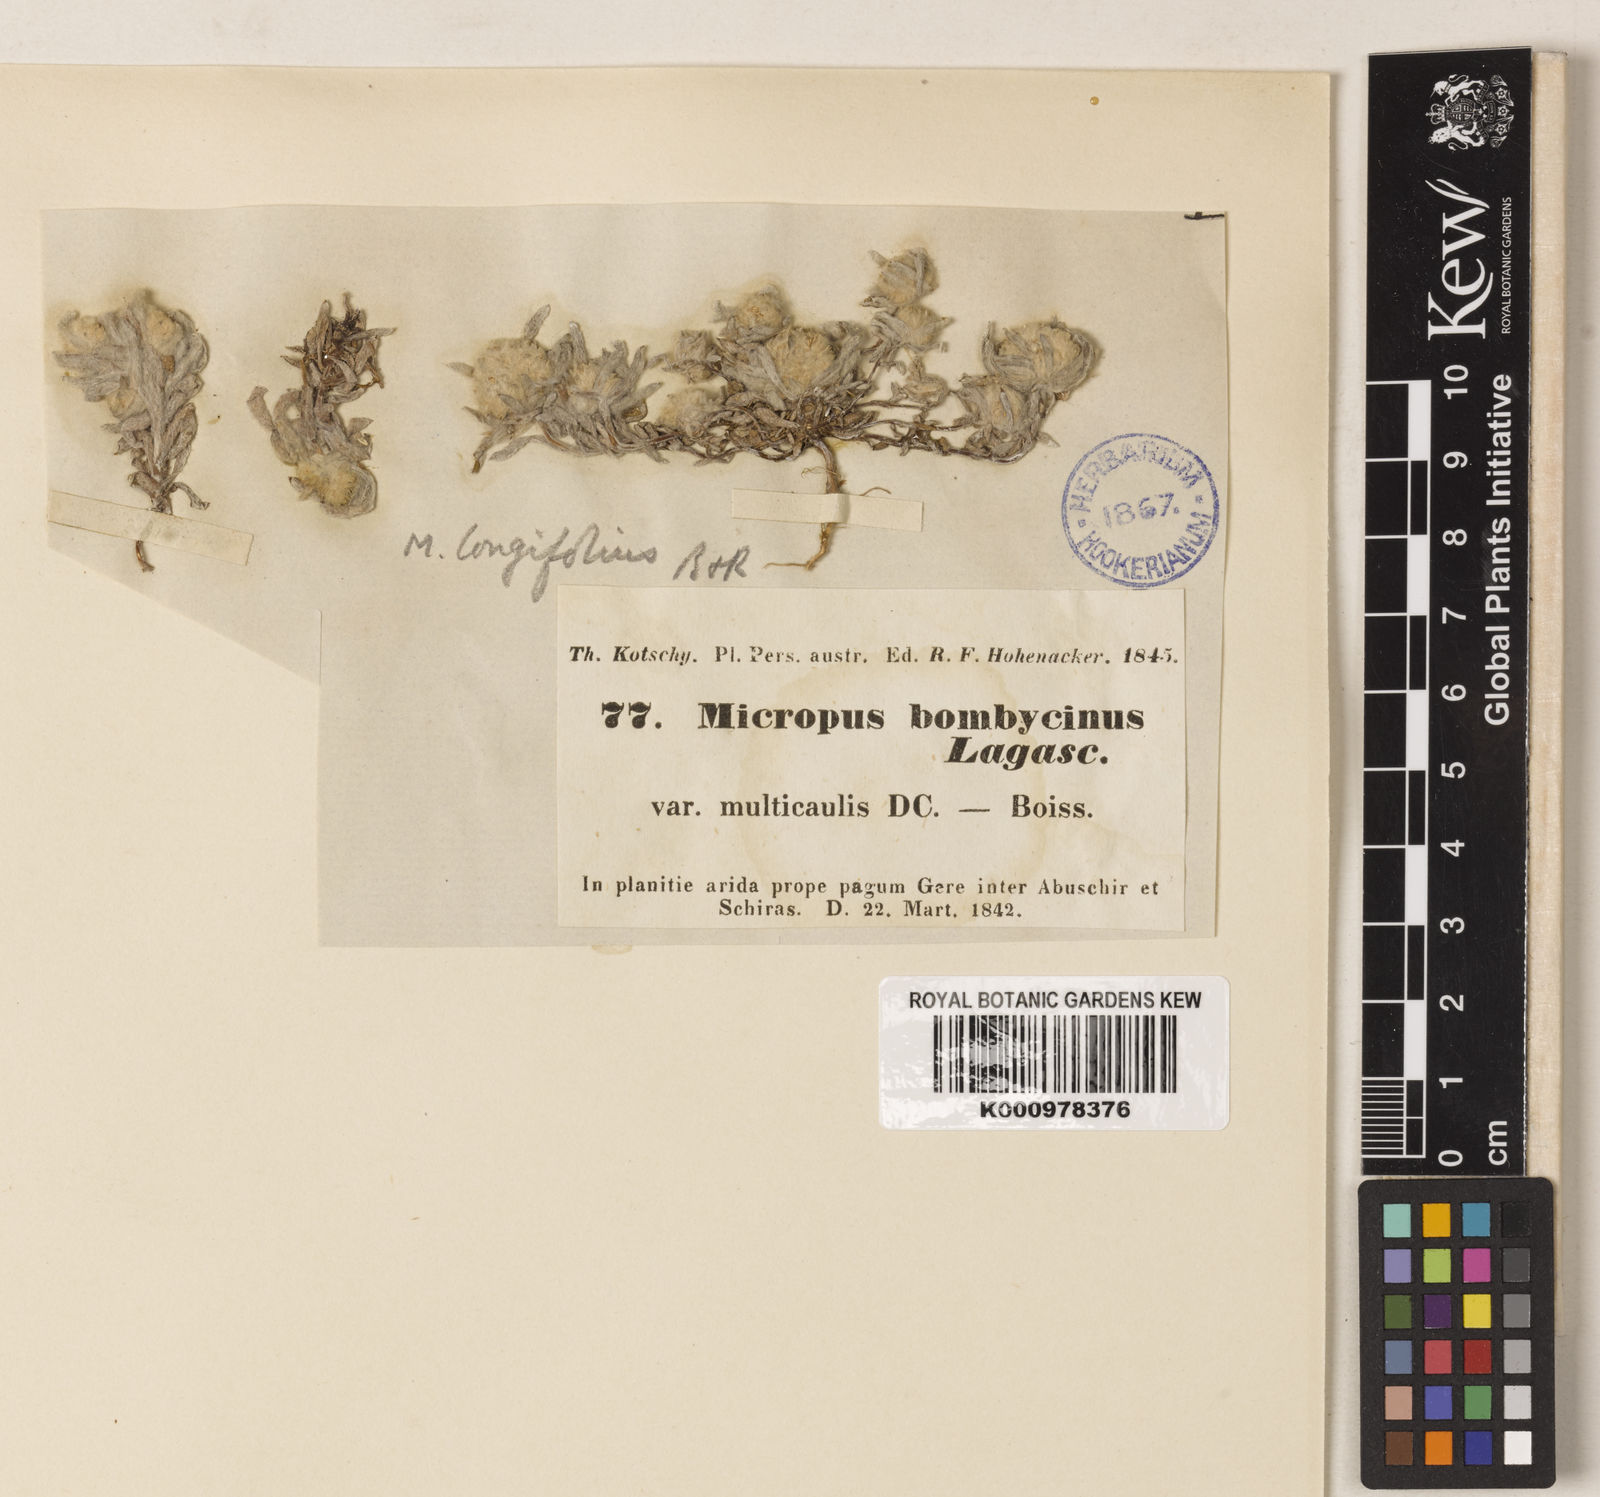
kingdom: Plantae
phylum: Tracheophyta
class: Magnoliopsida
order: Asterales
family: Asteraceae
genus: Filago
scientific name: Filago griffithii
